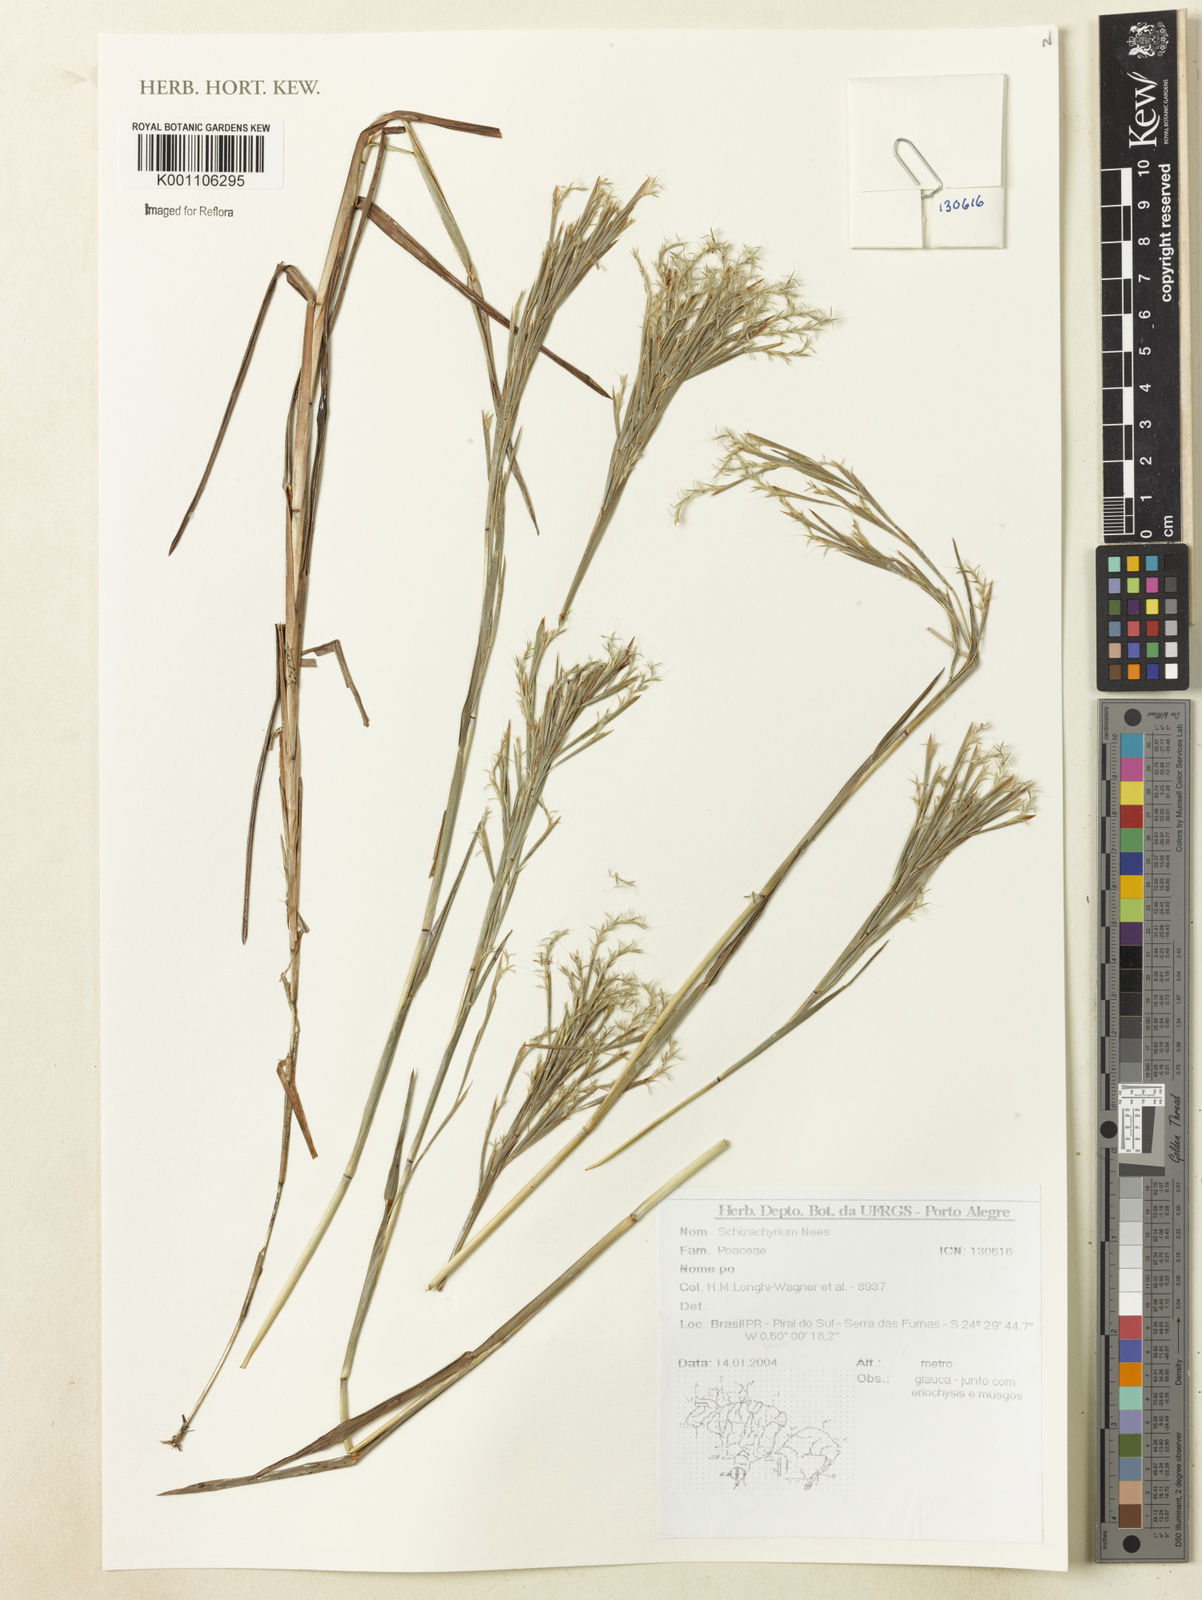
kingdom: Plantae
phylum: Tracheophyta
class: Liliopsida
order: Poales
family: Poaceae
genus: Schizachyrium
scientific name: Schizachyrium
